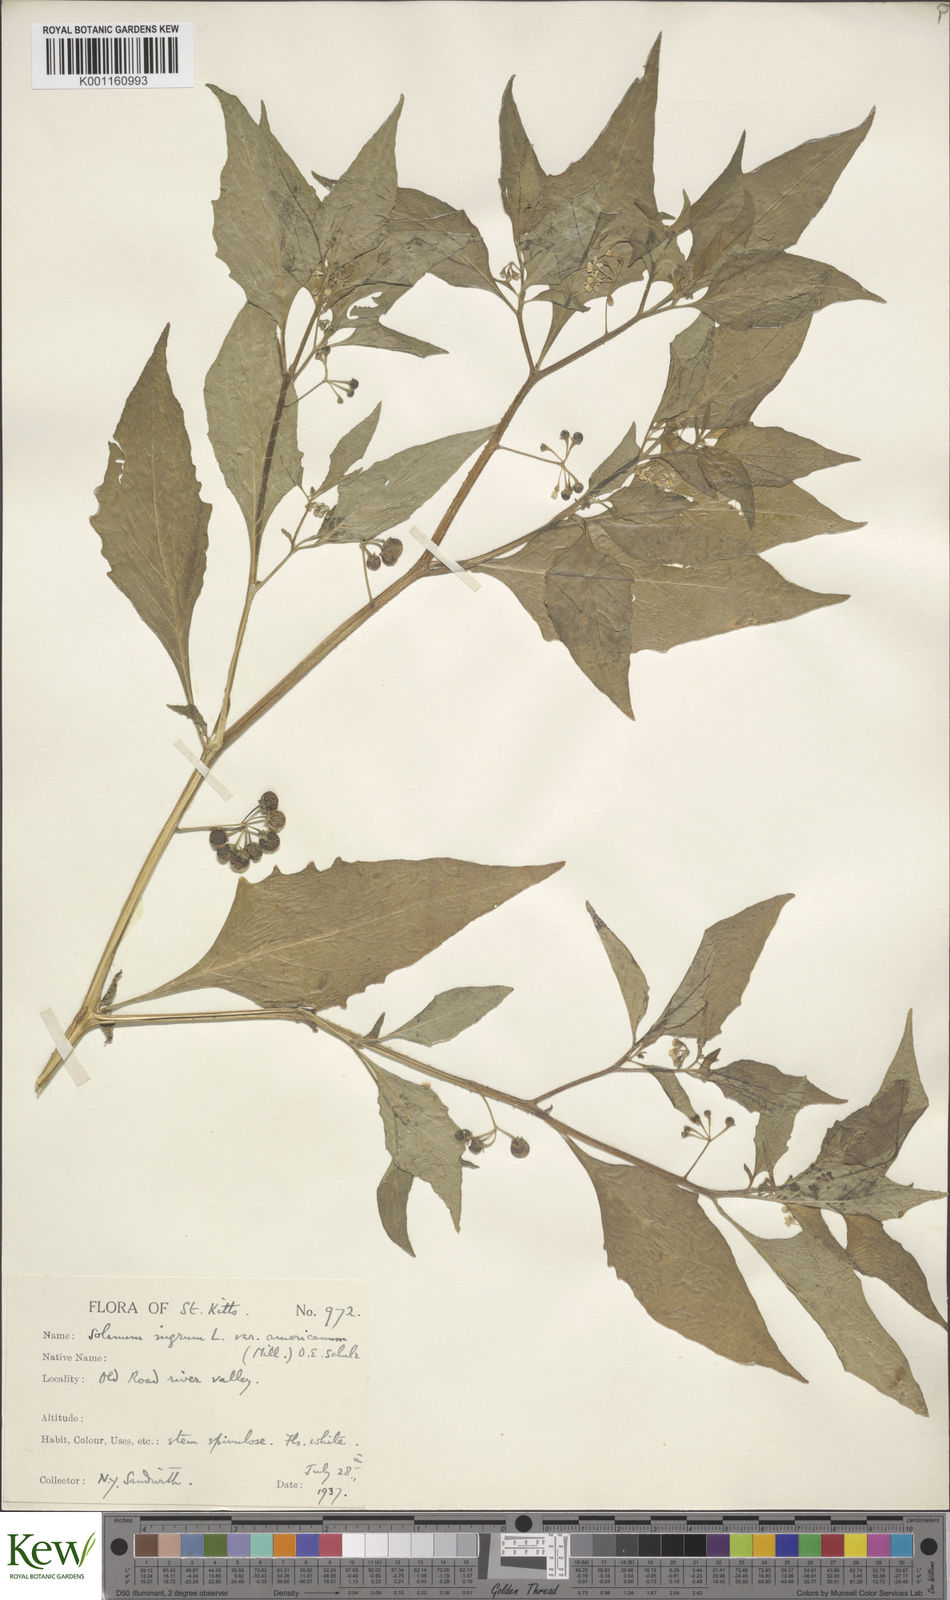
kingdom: Plantae
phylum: Tracheophyta
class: Magnoliopsida
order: Solanales
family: Solanaceae
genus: Solanum
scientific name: Solanum americanum
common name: American black nightshade
